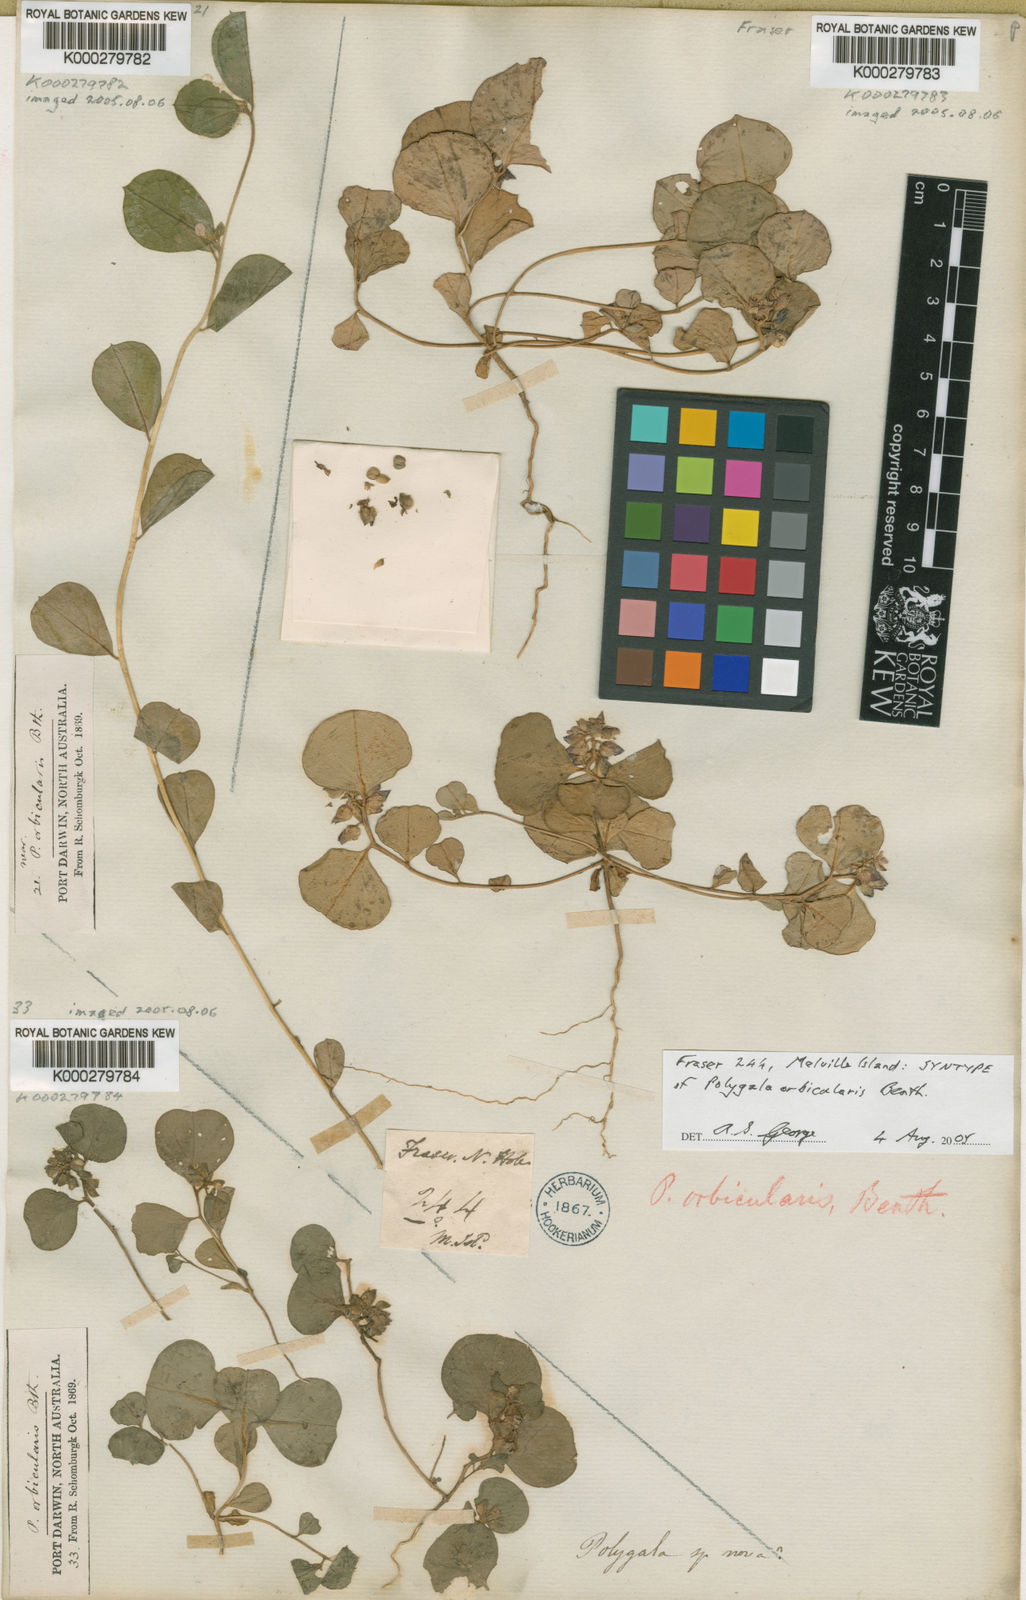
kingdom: Plantae
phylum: Tracheophyta
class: Magnoliopsida
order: Fabales
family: Polygalaceae
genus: Polygala
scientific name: Polygala orbicularis
